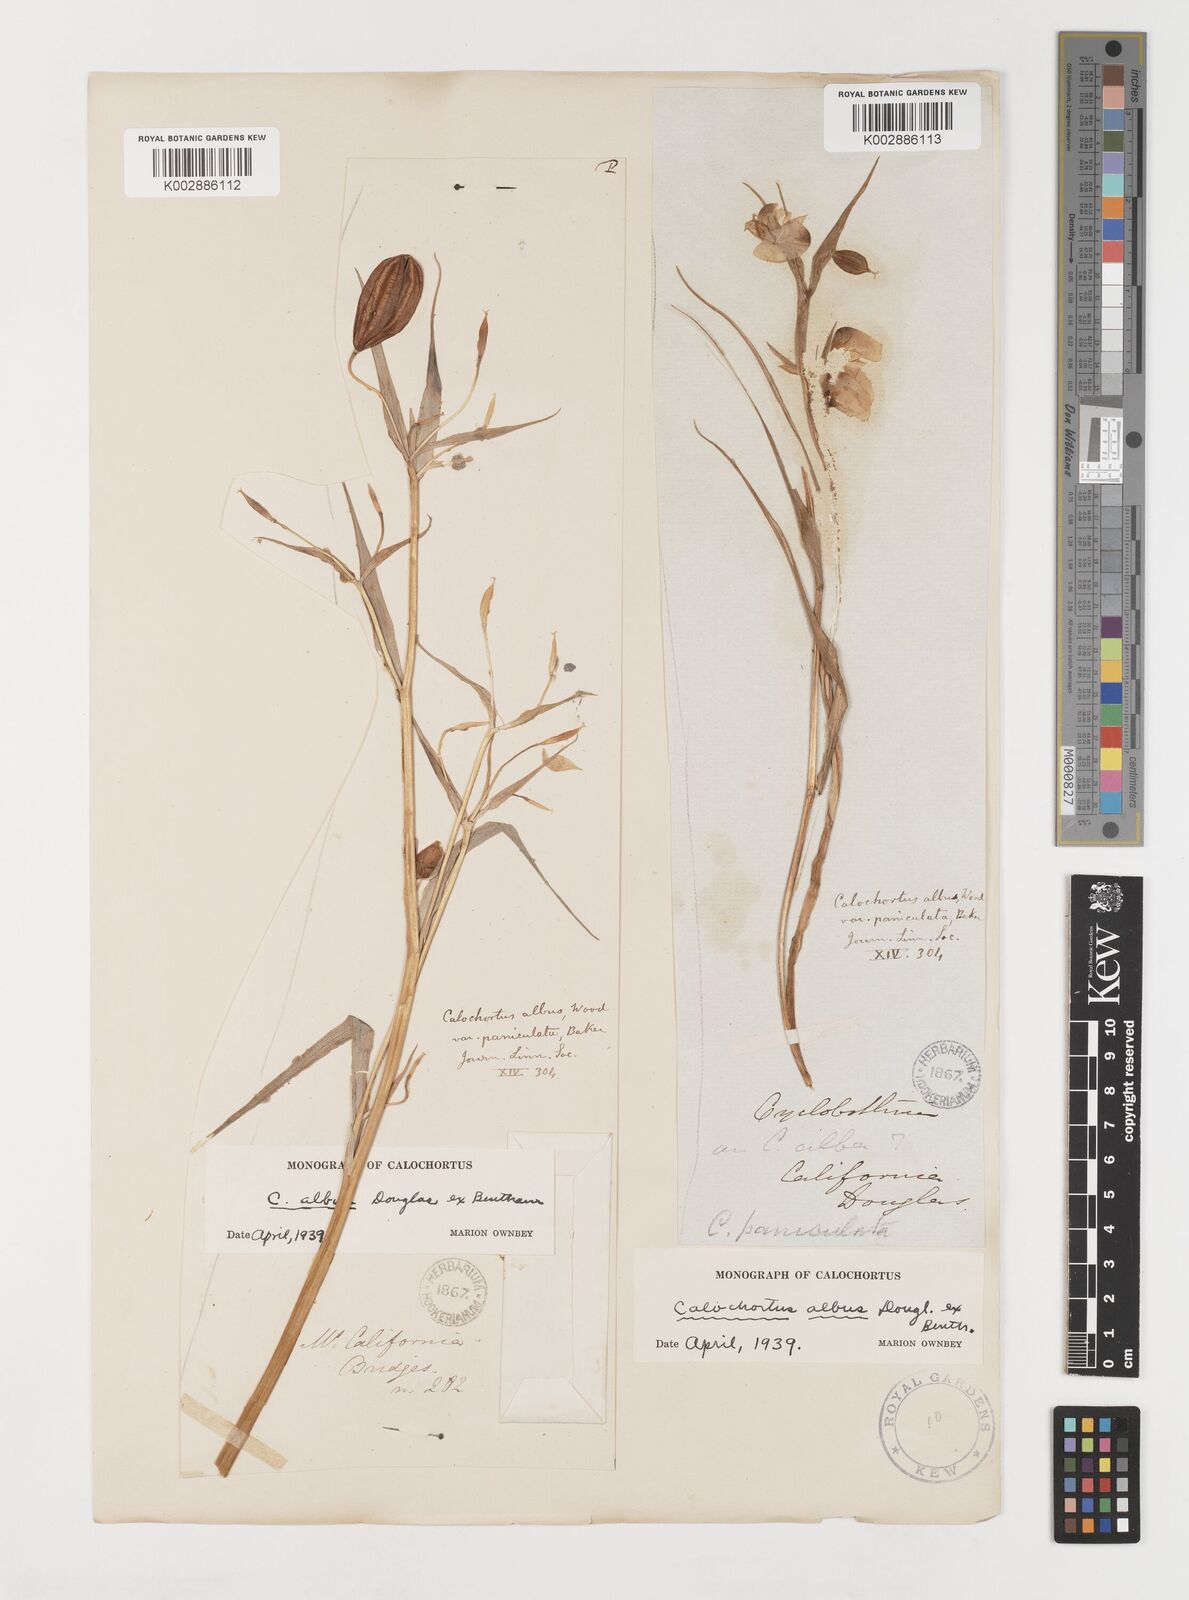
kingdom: Plantae
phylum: Tracheophyta
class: Liliopsida
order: Liliales
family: Liliaceae
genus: Calochortus
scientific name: Calochortus albus
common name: Fairy-lantern
